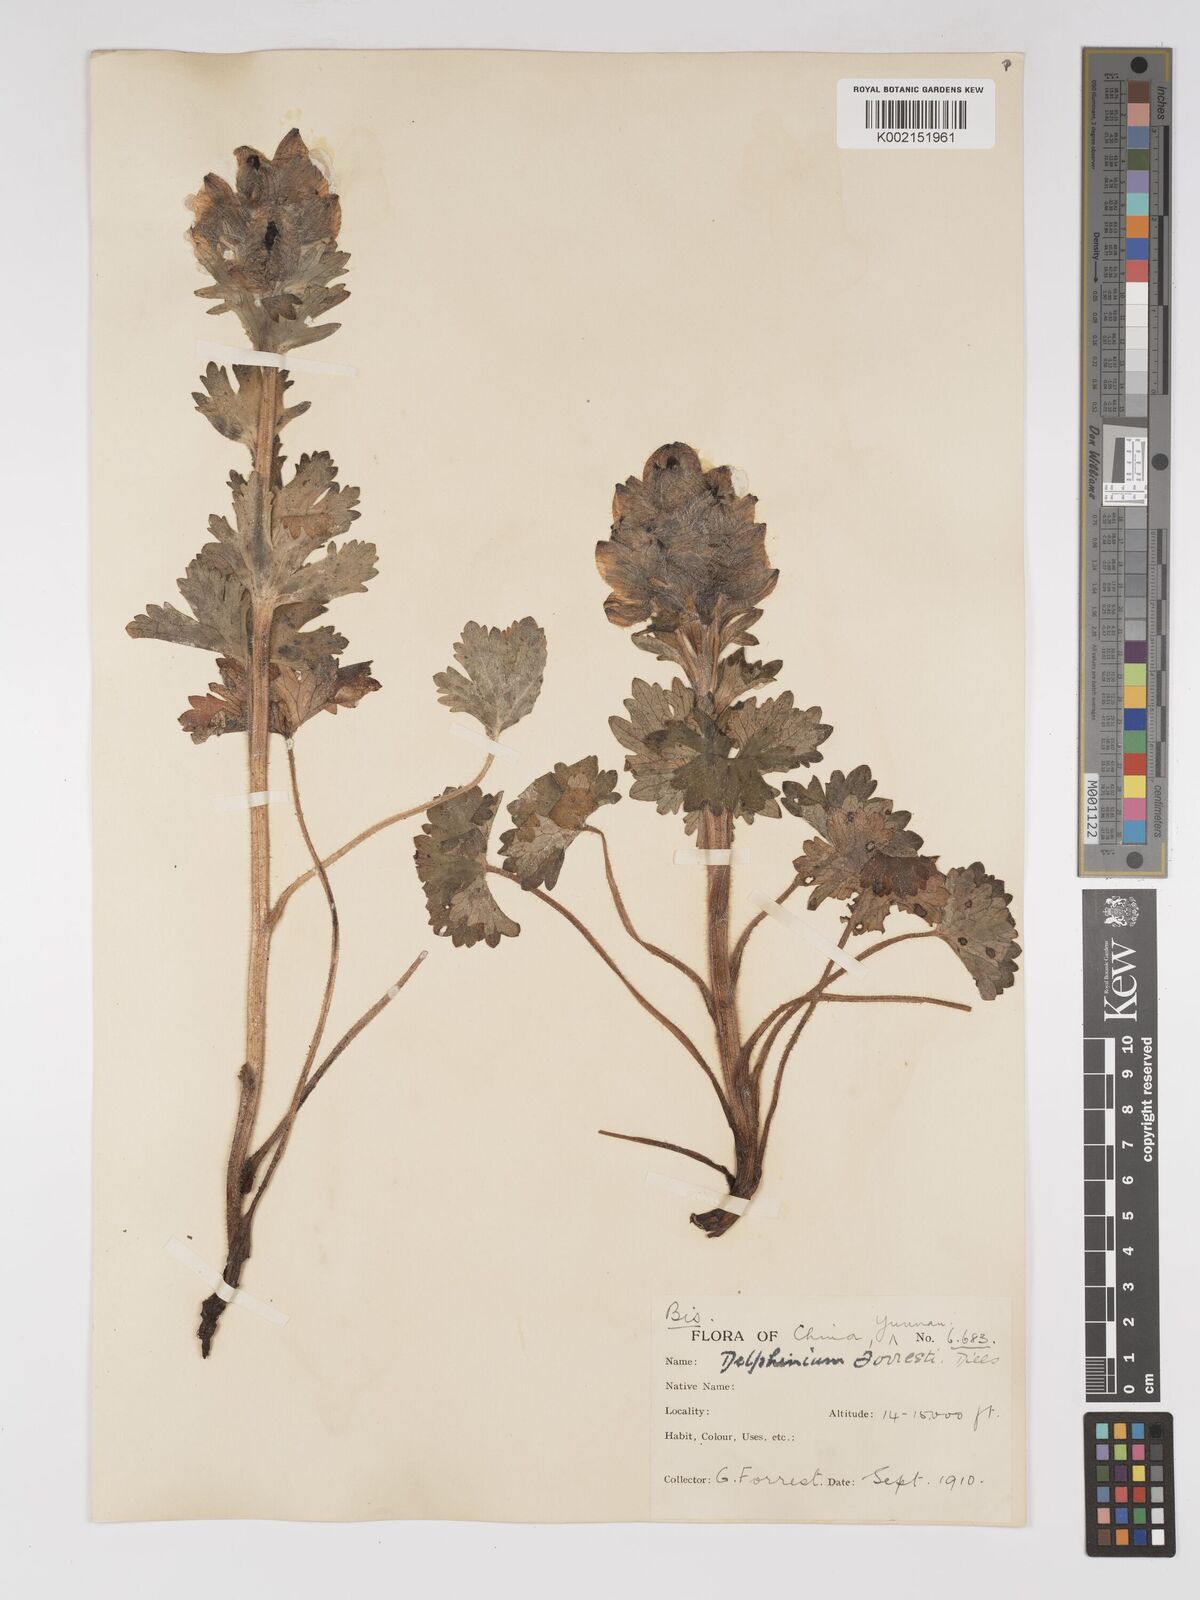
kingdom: Plantae
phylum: Tracheophyta
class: Magnoliopsida
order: Ranunculales
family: Ranunculaceae
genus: Delphinium
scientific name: Delphinium trichophorum
